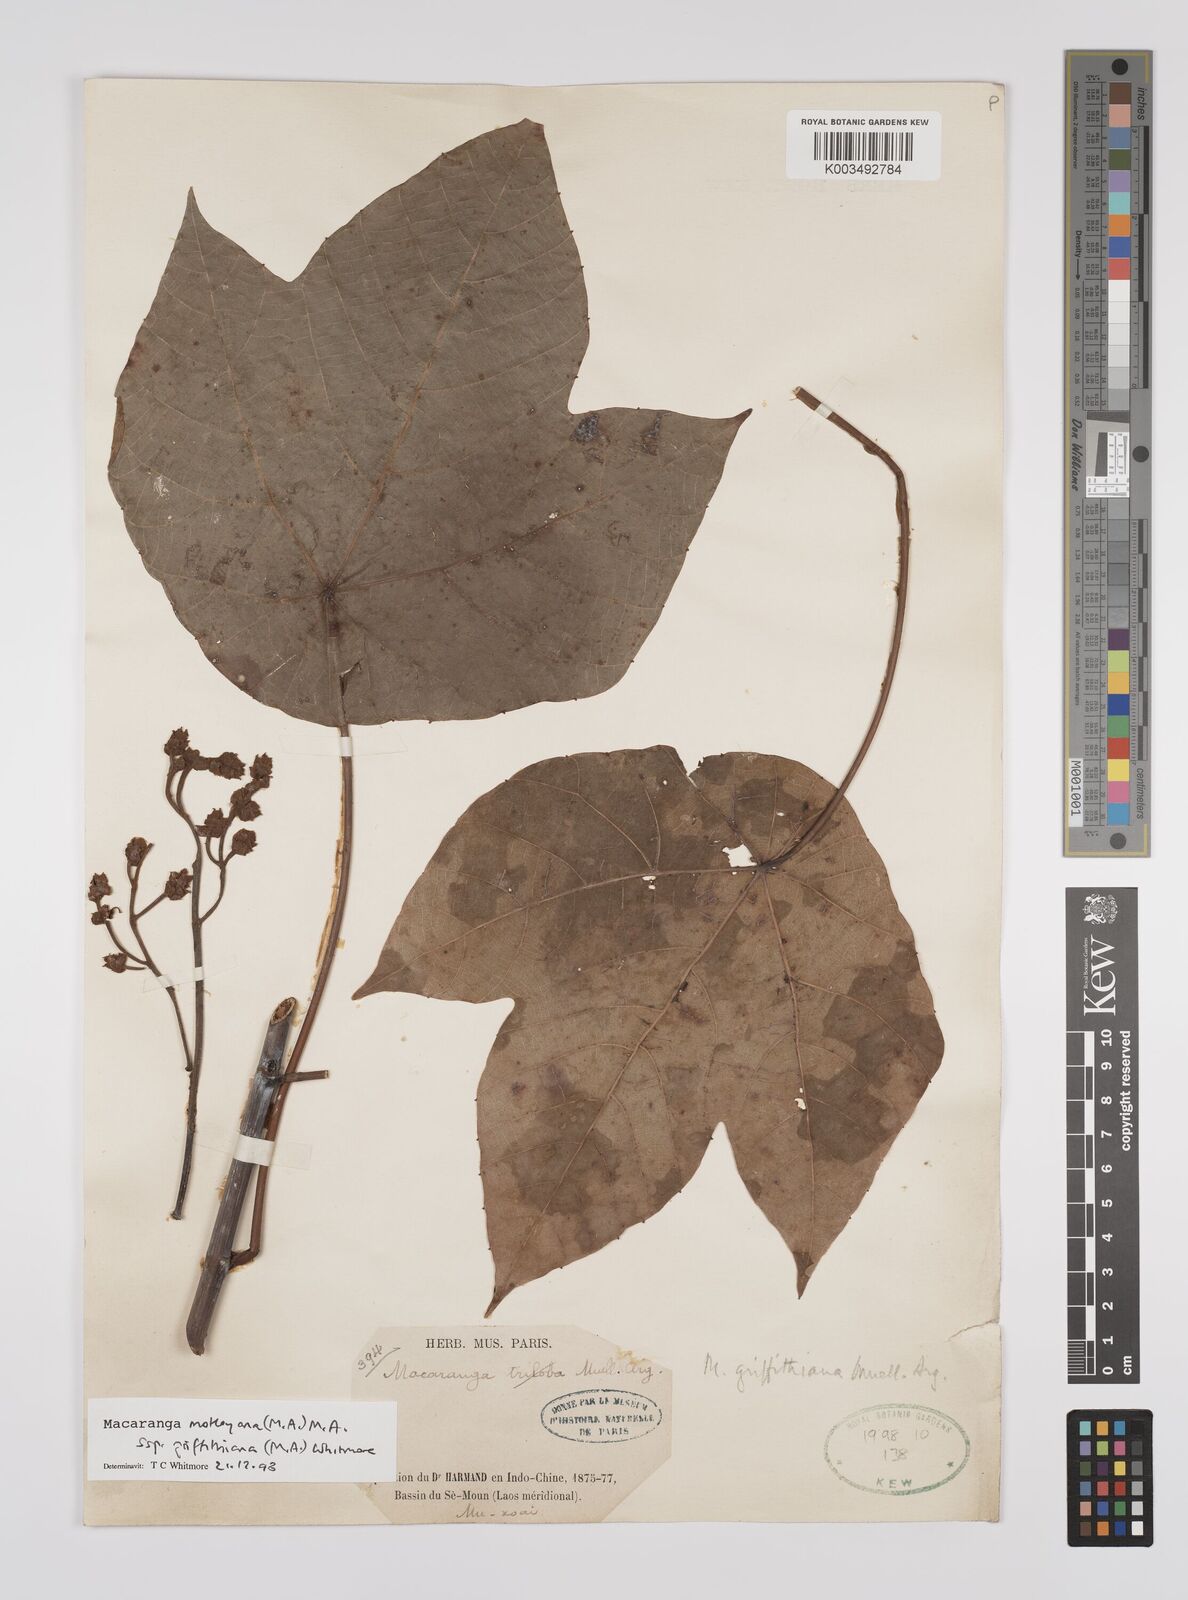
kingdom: Plantae
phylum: Tracheophyta
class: Magnoliopsida
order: Malpighiales
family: Euphorbiaceae
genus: Macaranga
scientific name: Macaranga griffithiana
